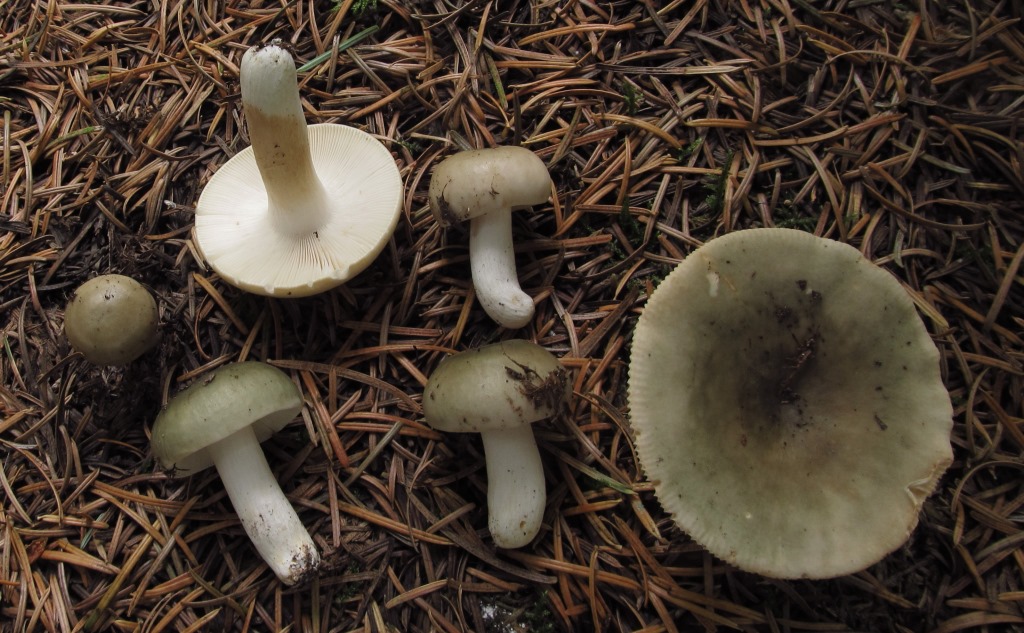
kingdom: Fungi
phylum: Basidiomycota
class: Agaricomycetes
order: Russulales
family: Russulaceae
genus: Russula
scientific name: Russula aeruginea
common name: græsgrøn skørhat
